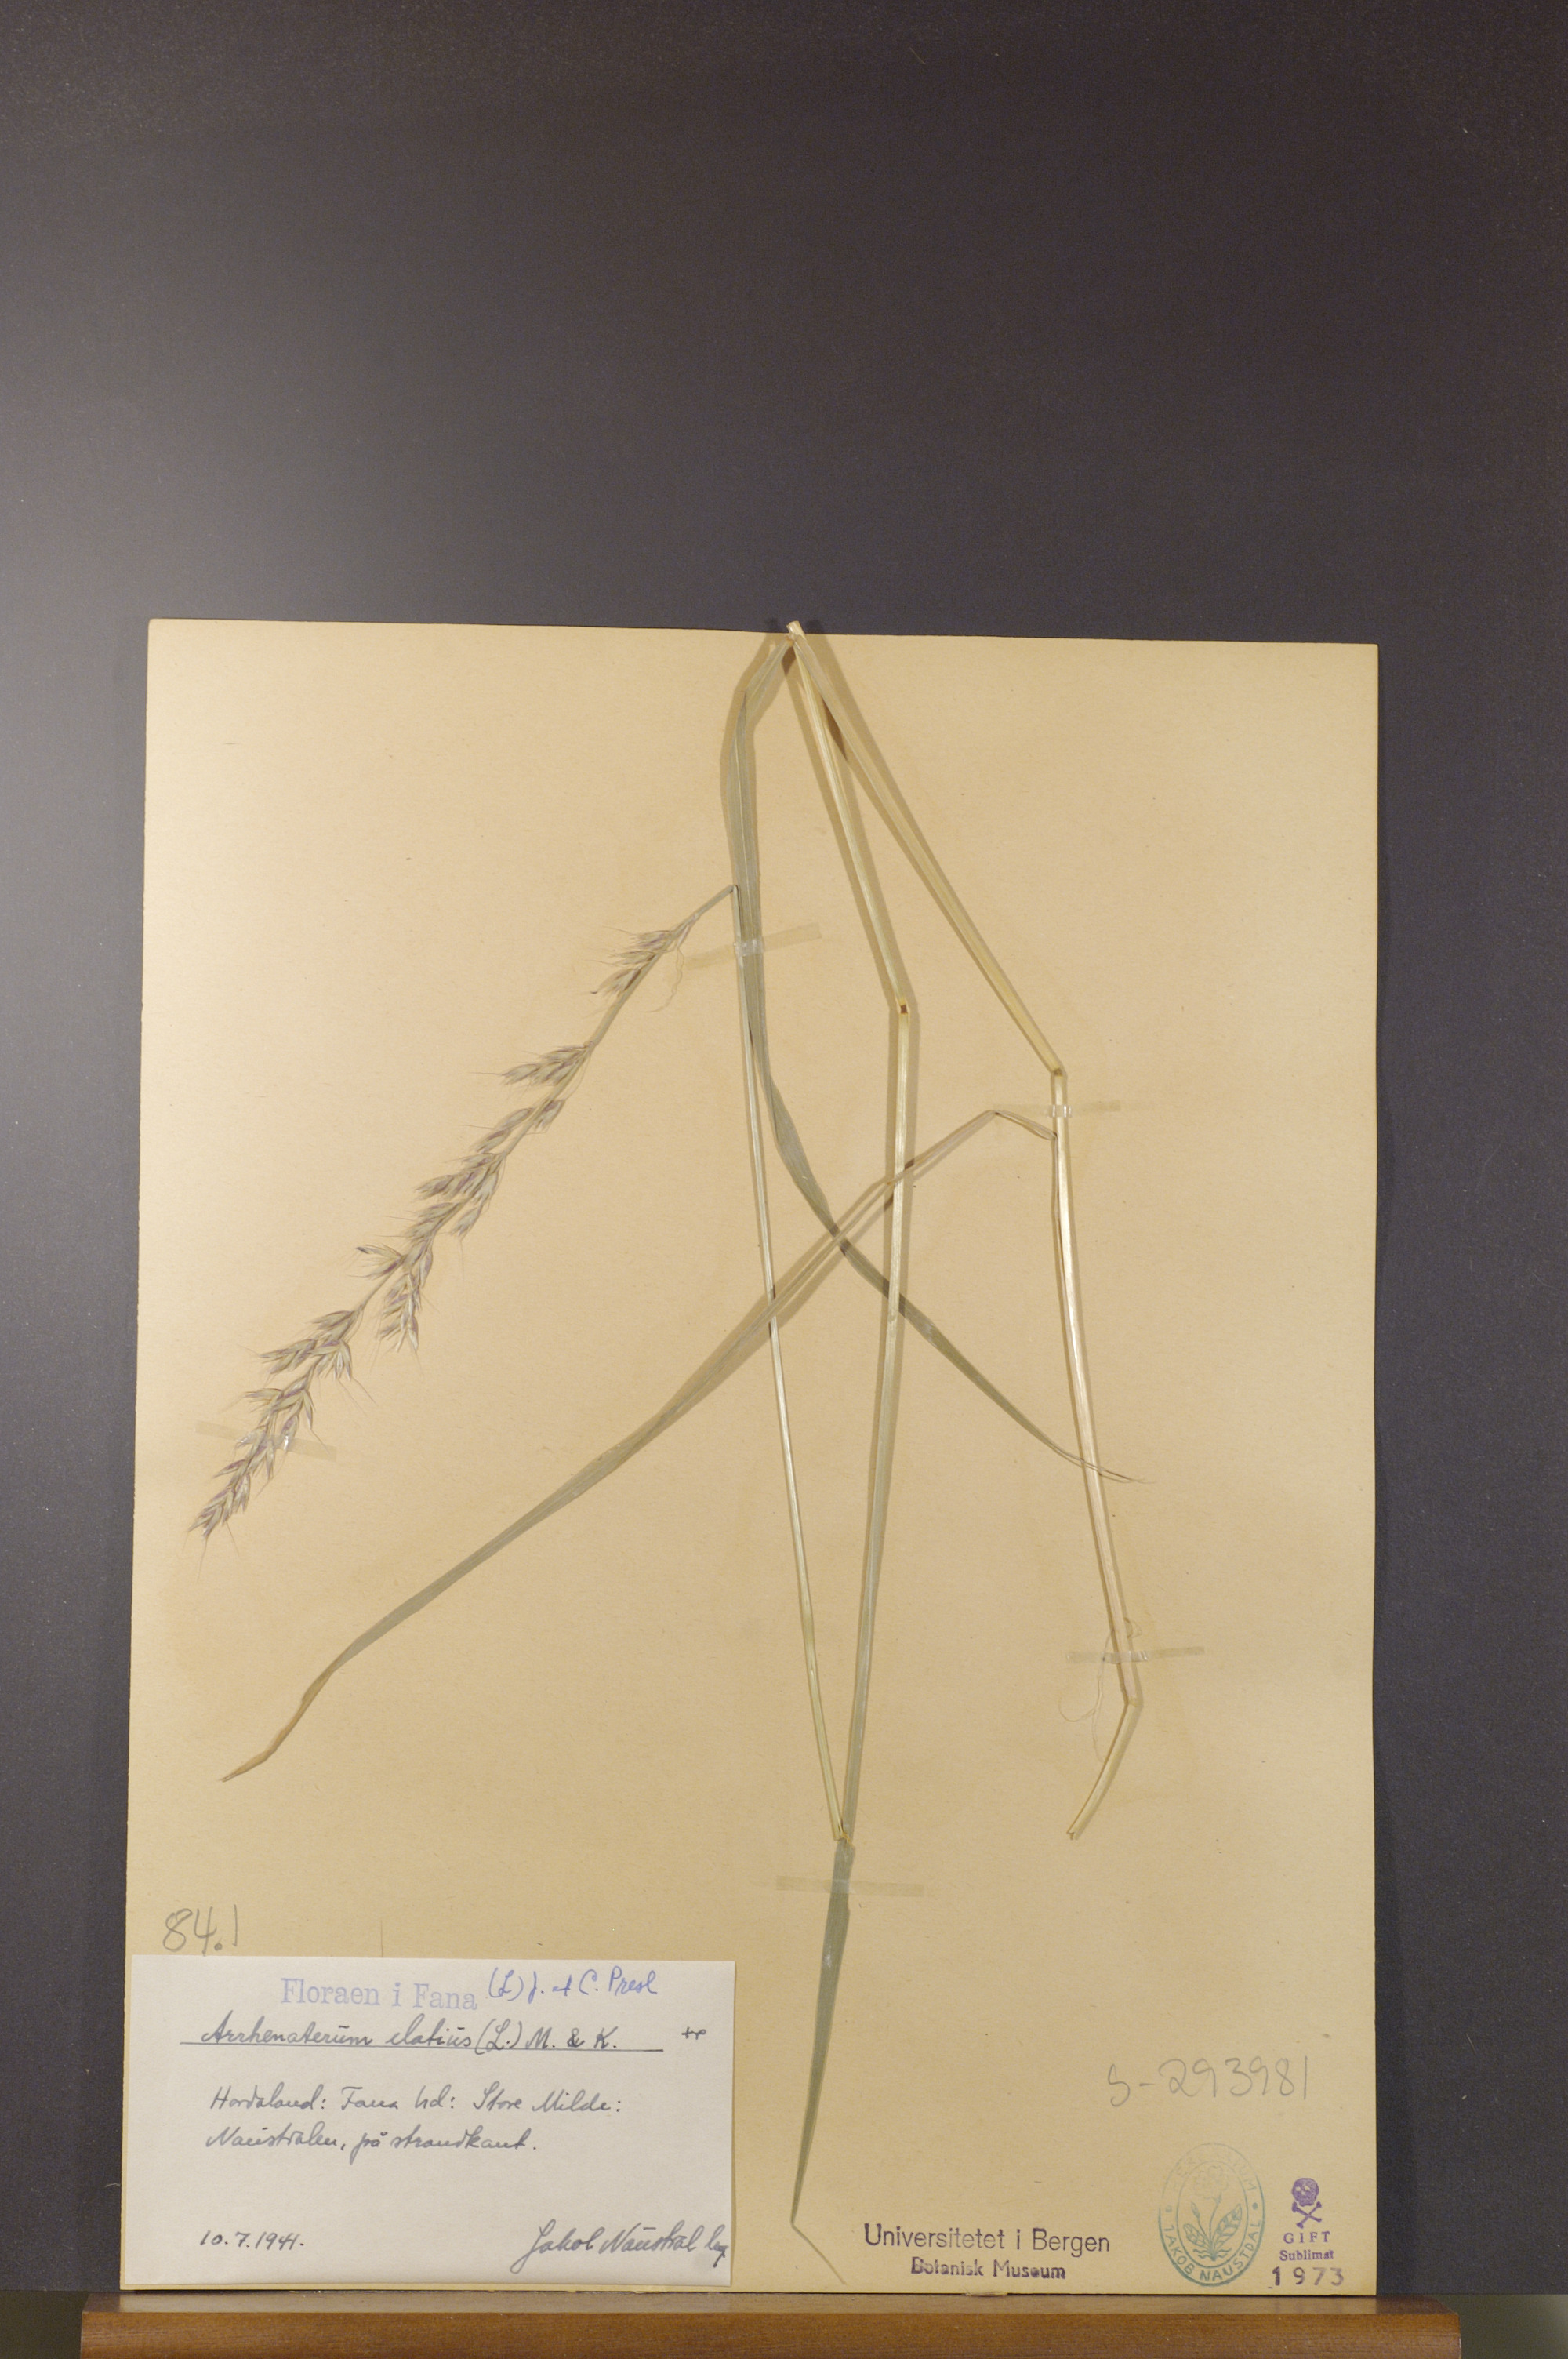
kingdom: Plantae
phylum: Tracheophyta
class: Liliopsida
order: Poales
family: Poaceae
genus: Arrhenatherum
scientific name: Arrhenatherum elatius
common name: Tall oatgrass
